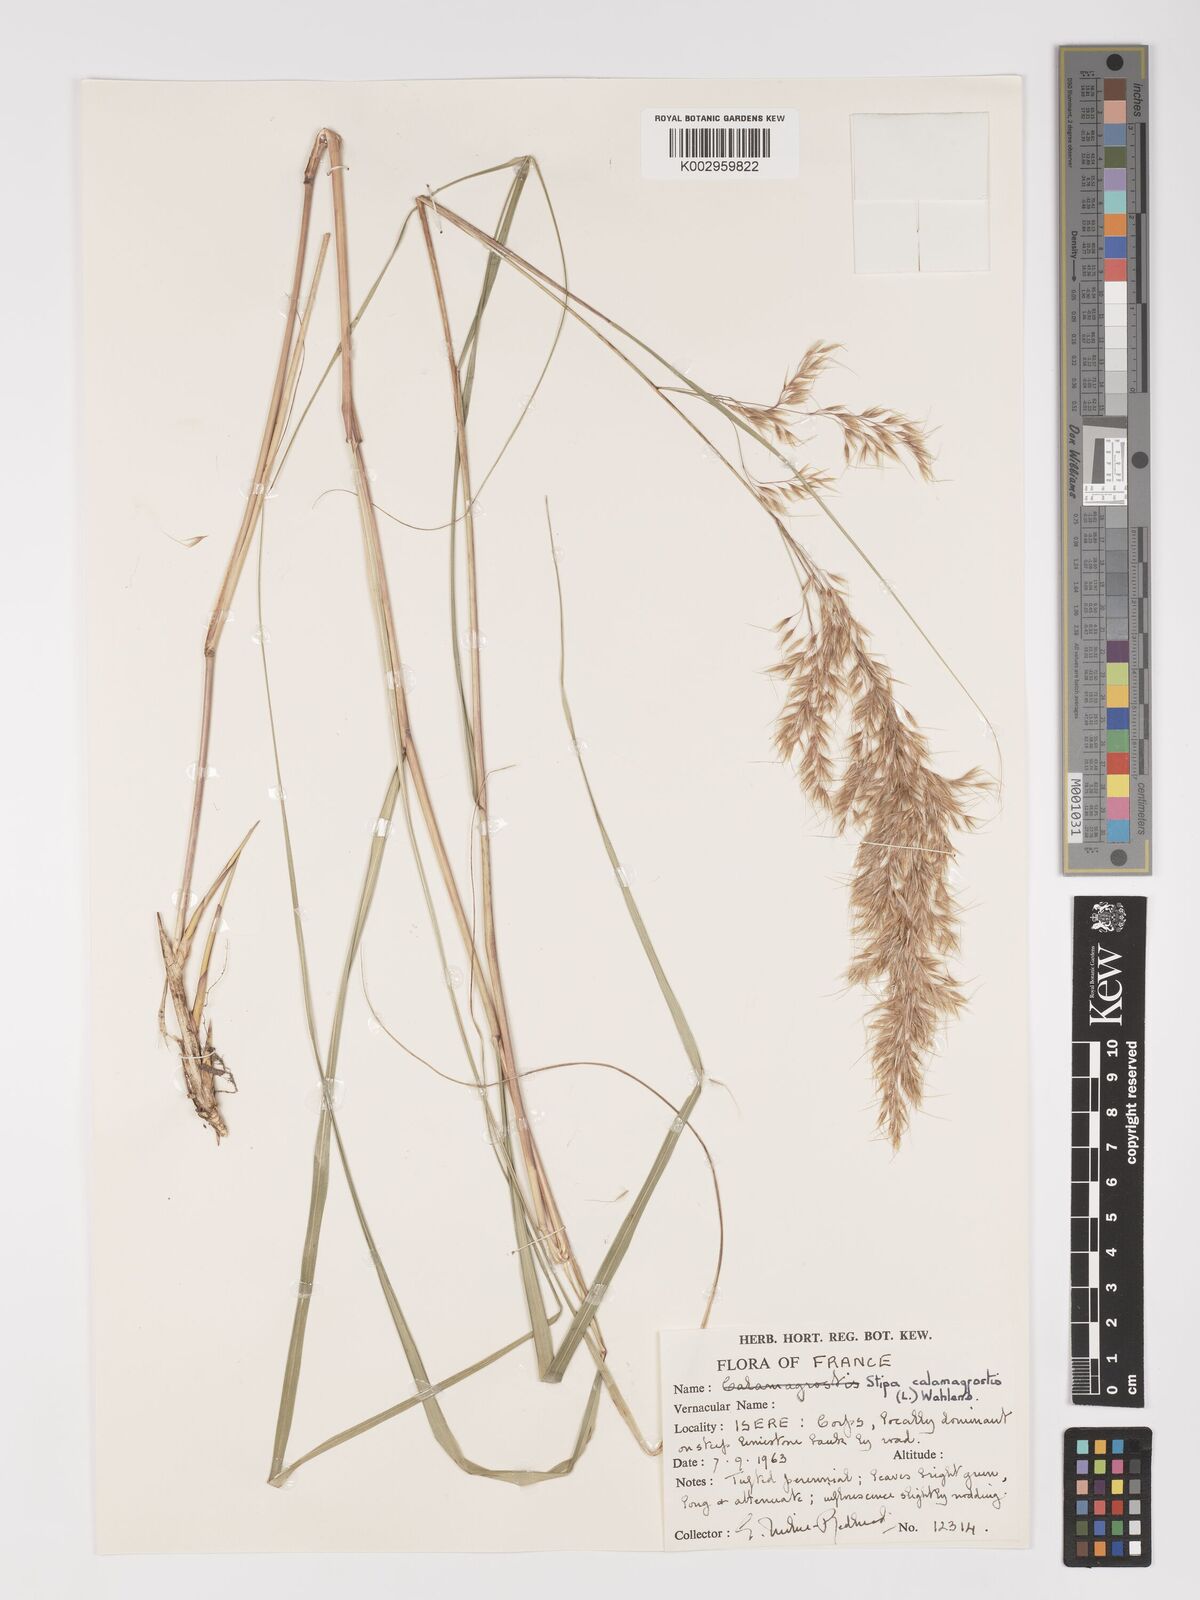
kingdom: Plantae
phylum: Tracheophyta
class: Liliopsida
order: Poales
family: Poaceae
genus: Achnatherum
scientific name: Achnatherum calamagrostis
